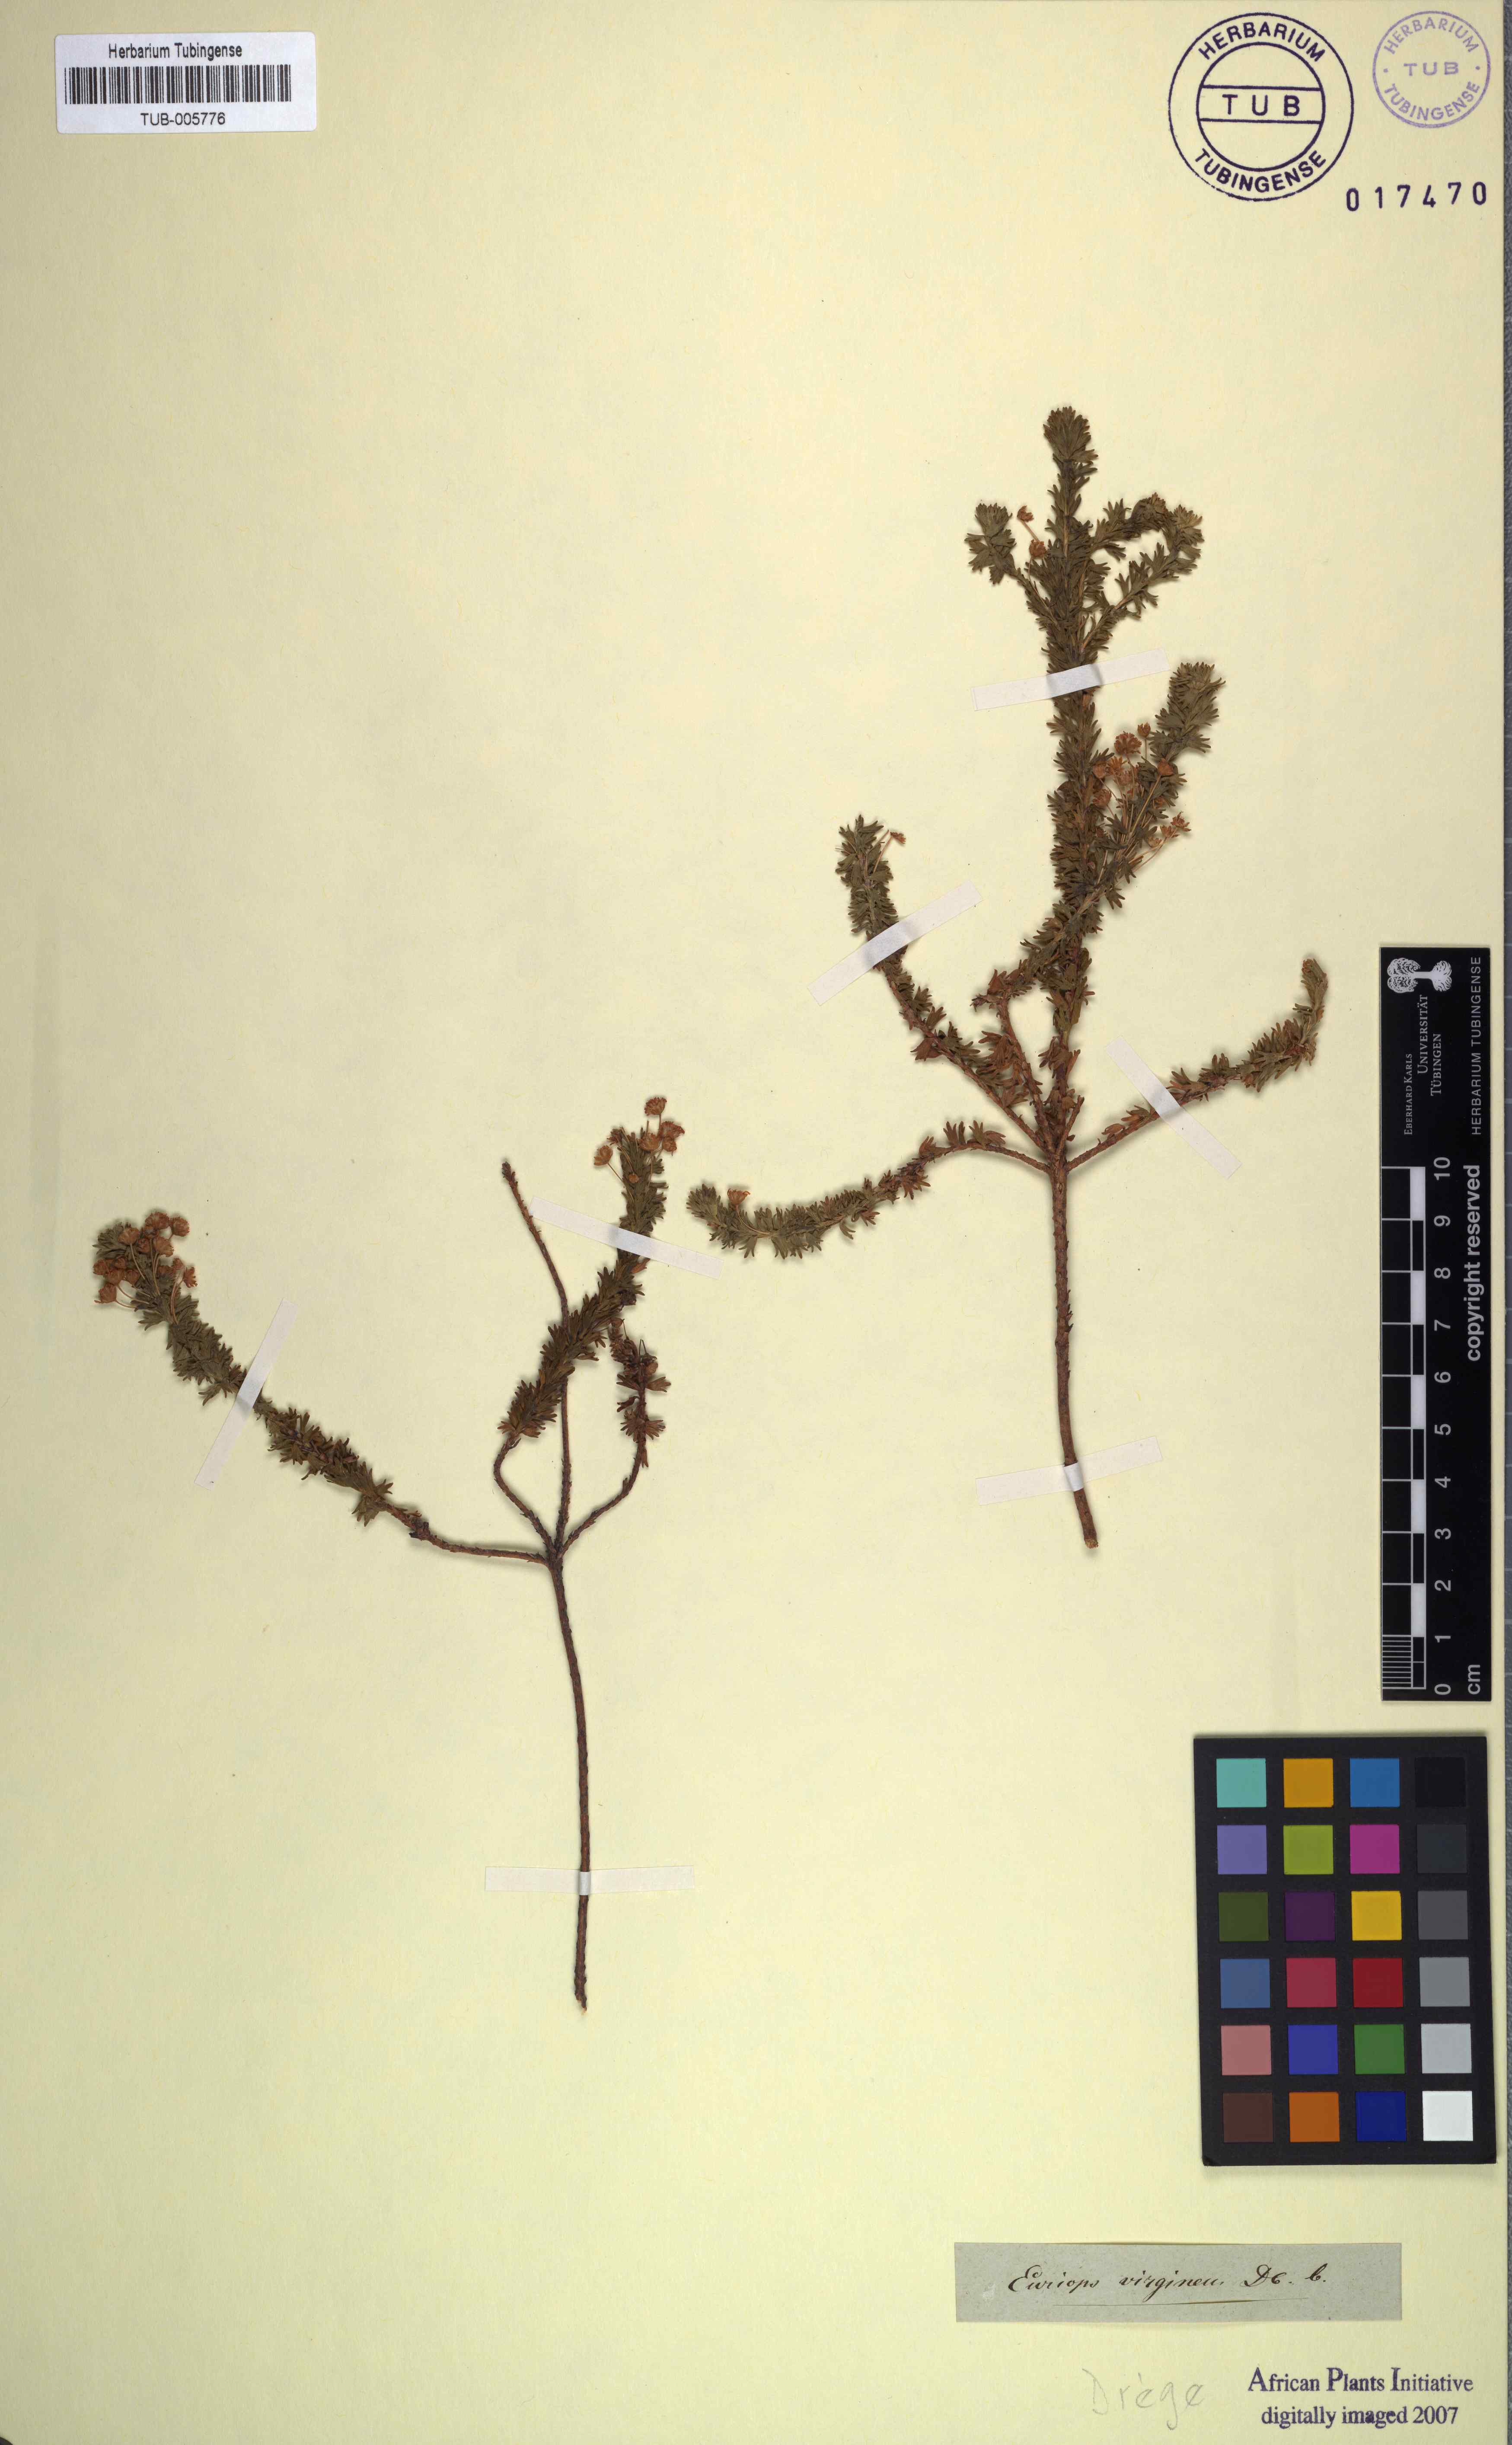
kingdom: Plantae
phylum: Tracheophyta
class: Magnoliopsida
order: Asterales
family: Asteraceae
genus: Euryops
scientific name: Euryops virgineus
